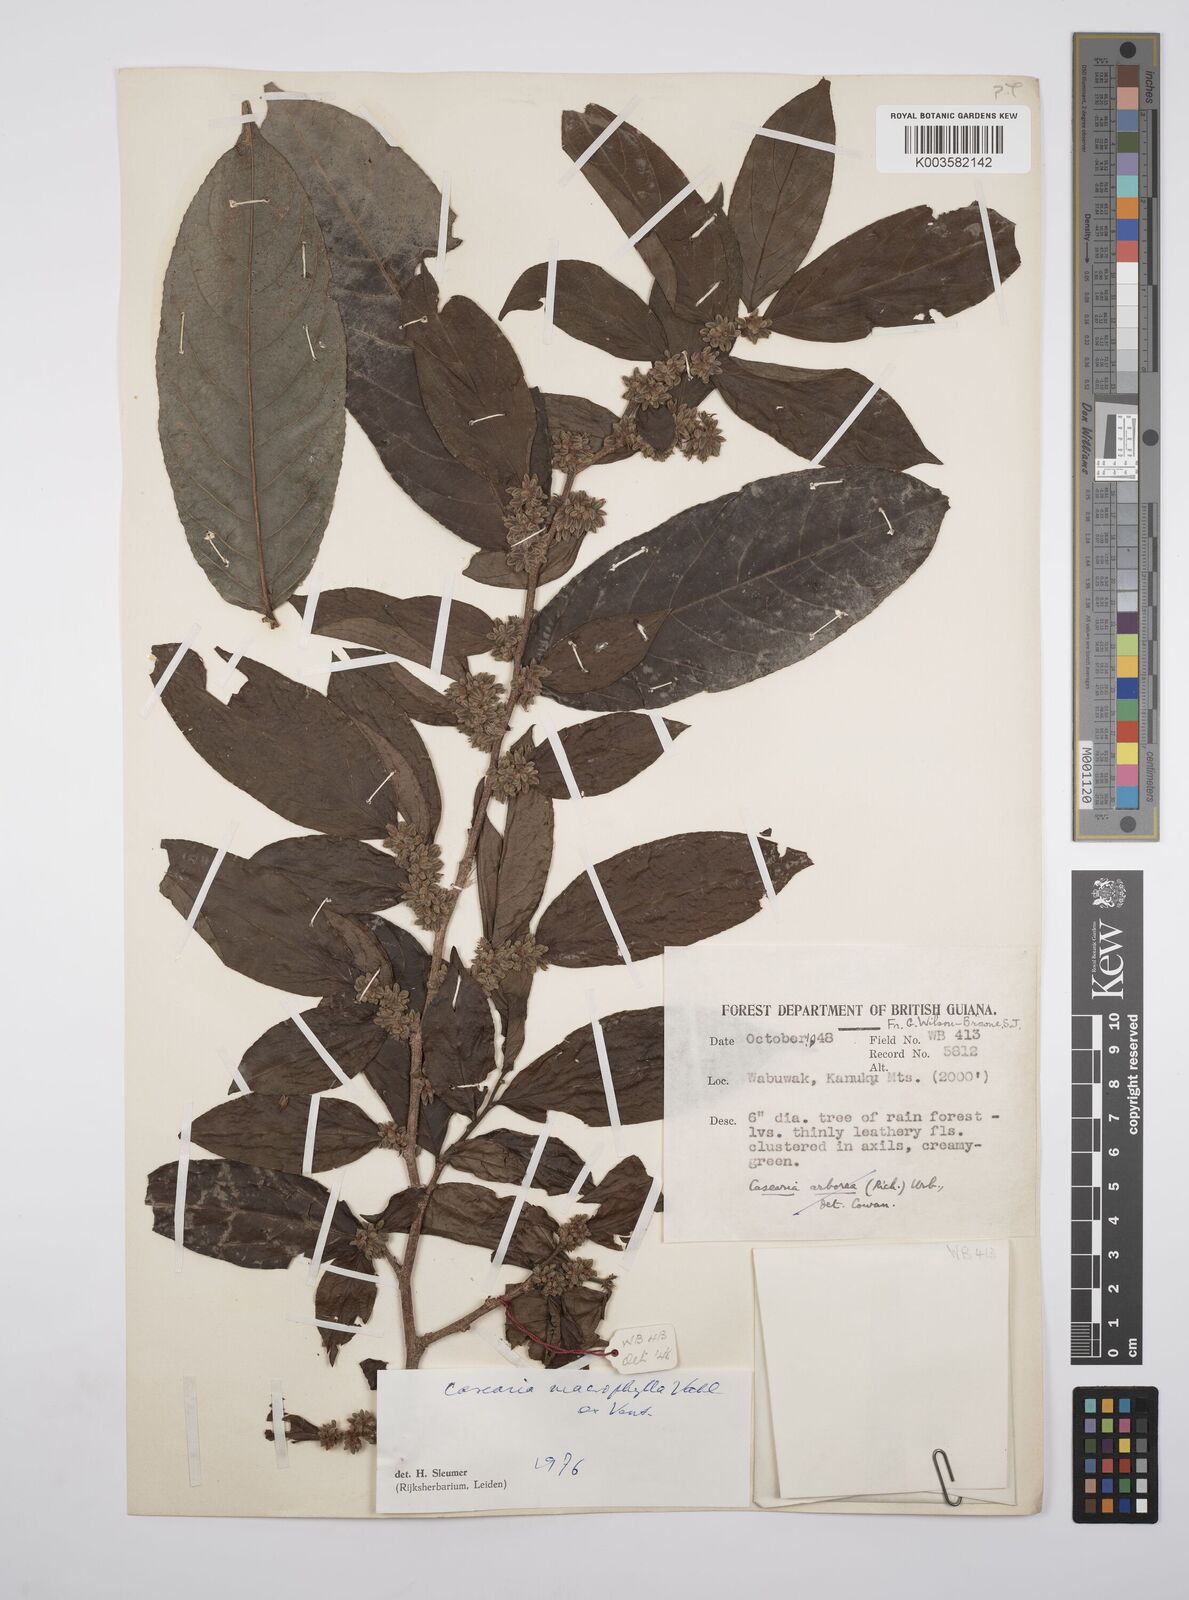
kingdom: Plantae
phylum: Tracheophyta
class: Magnoliopsida
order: Malpighiales
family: Salicaceae
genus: Casearia
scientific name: Casearia pitumba
